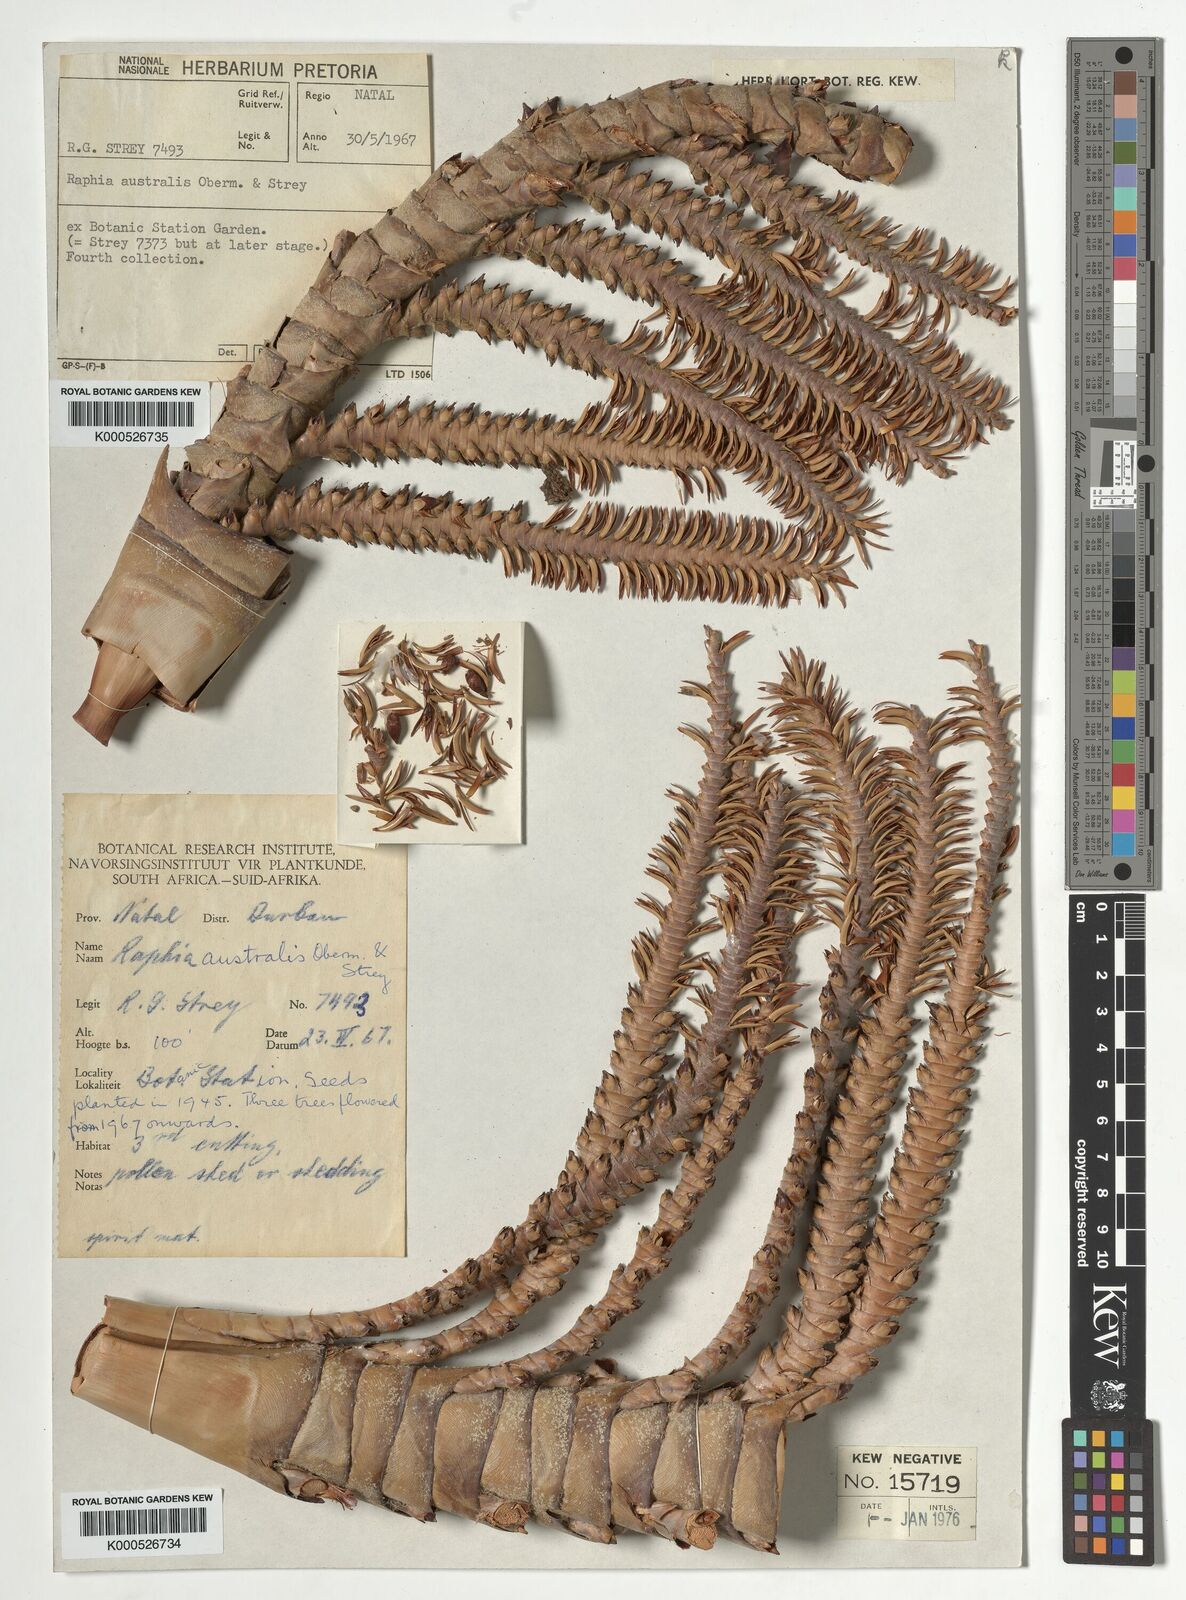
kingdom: Plantae
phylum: Tracheophyta
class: Liliopsida
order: Arecales
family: Arecaceae
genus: Raphia
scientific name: Raphia australis
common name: Giant palm
